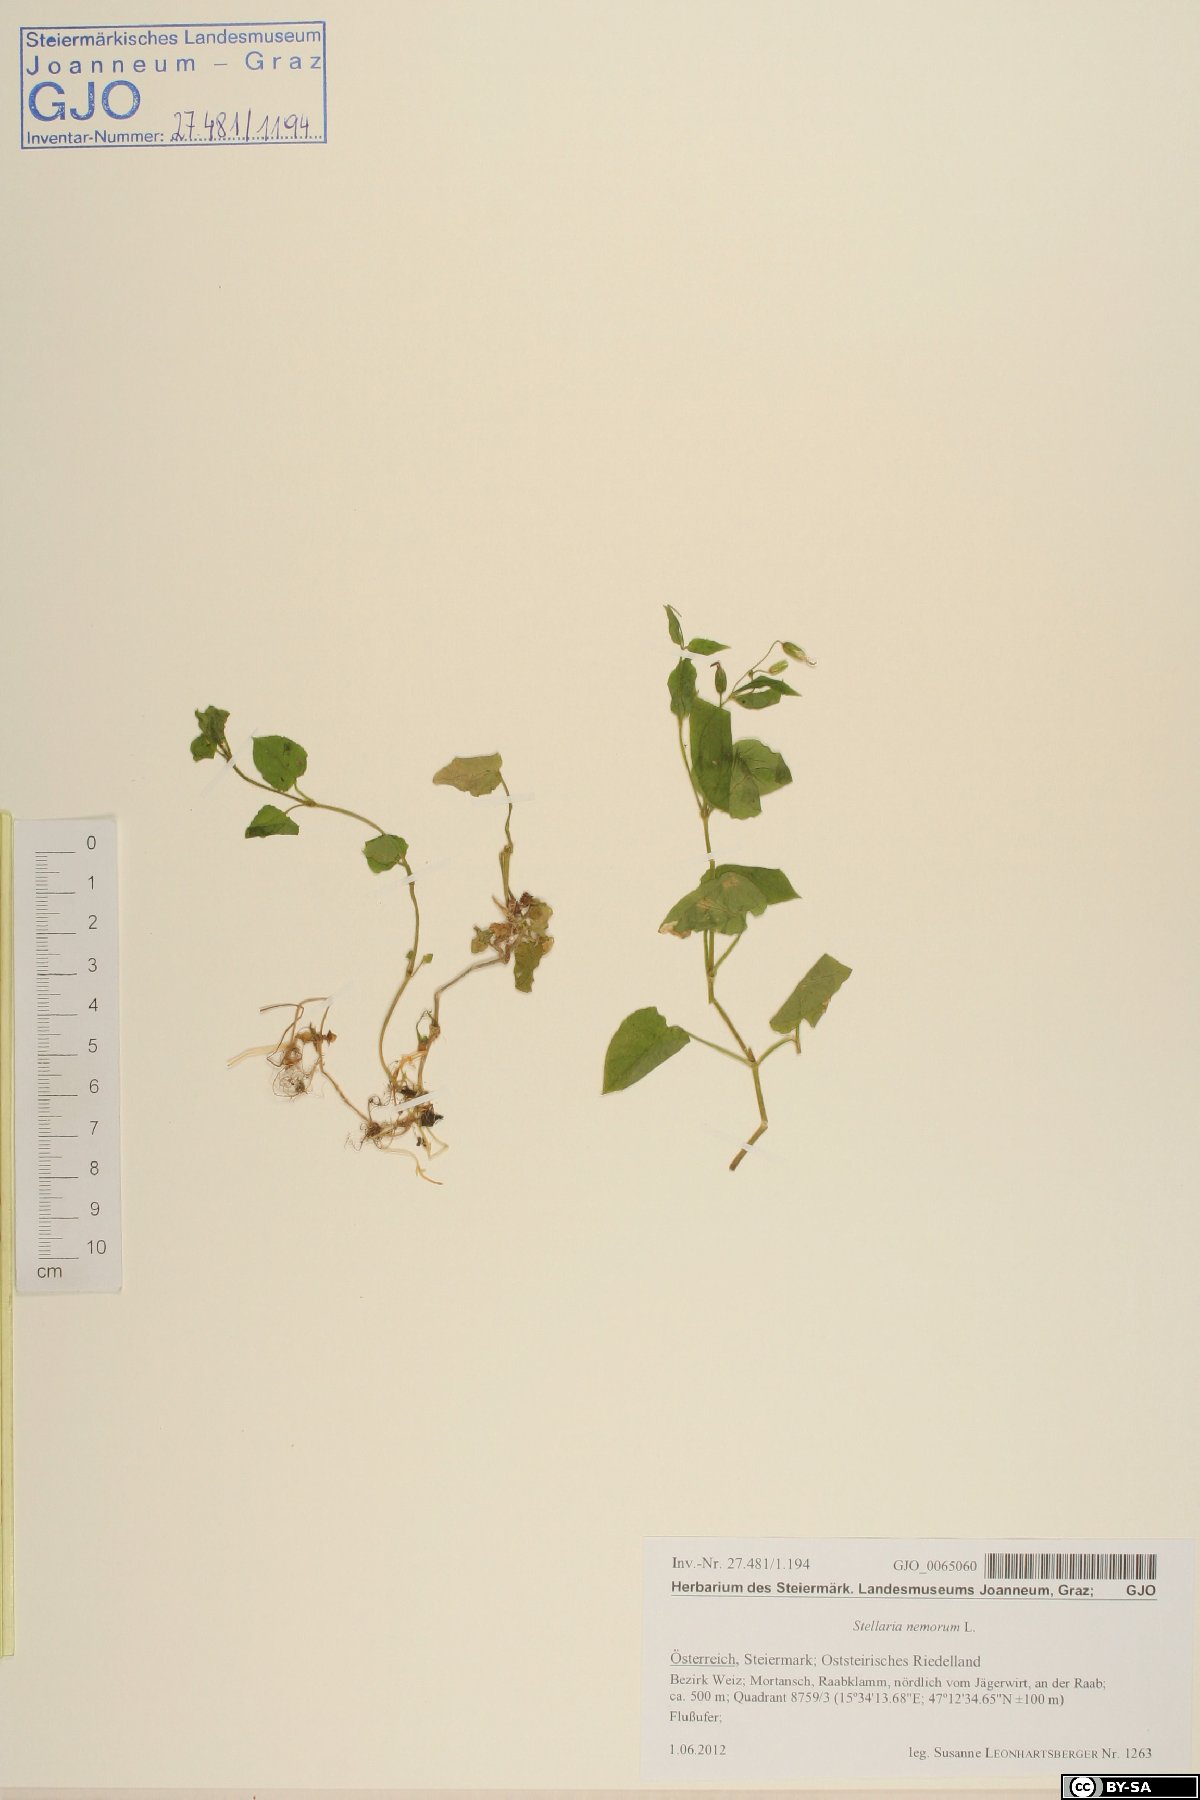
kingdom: Plantae
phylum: Tracheophyta
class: Magnoliopsida
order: Caryophyllales
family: Caryophyllaceae
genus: Stellaria
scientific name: Stellaria nemorum
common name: Wood stitchwort
